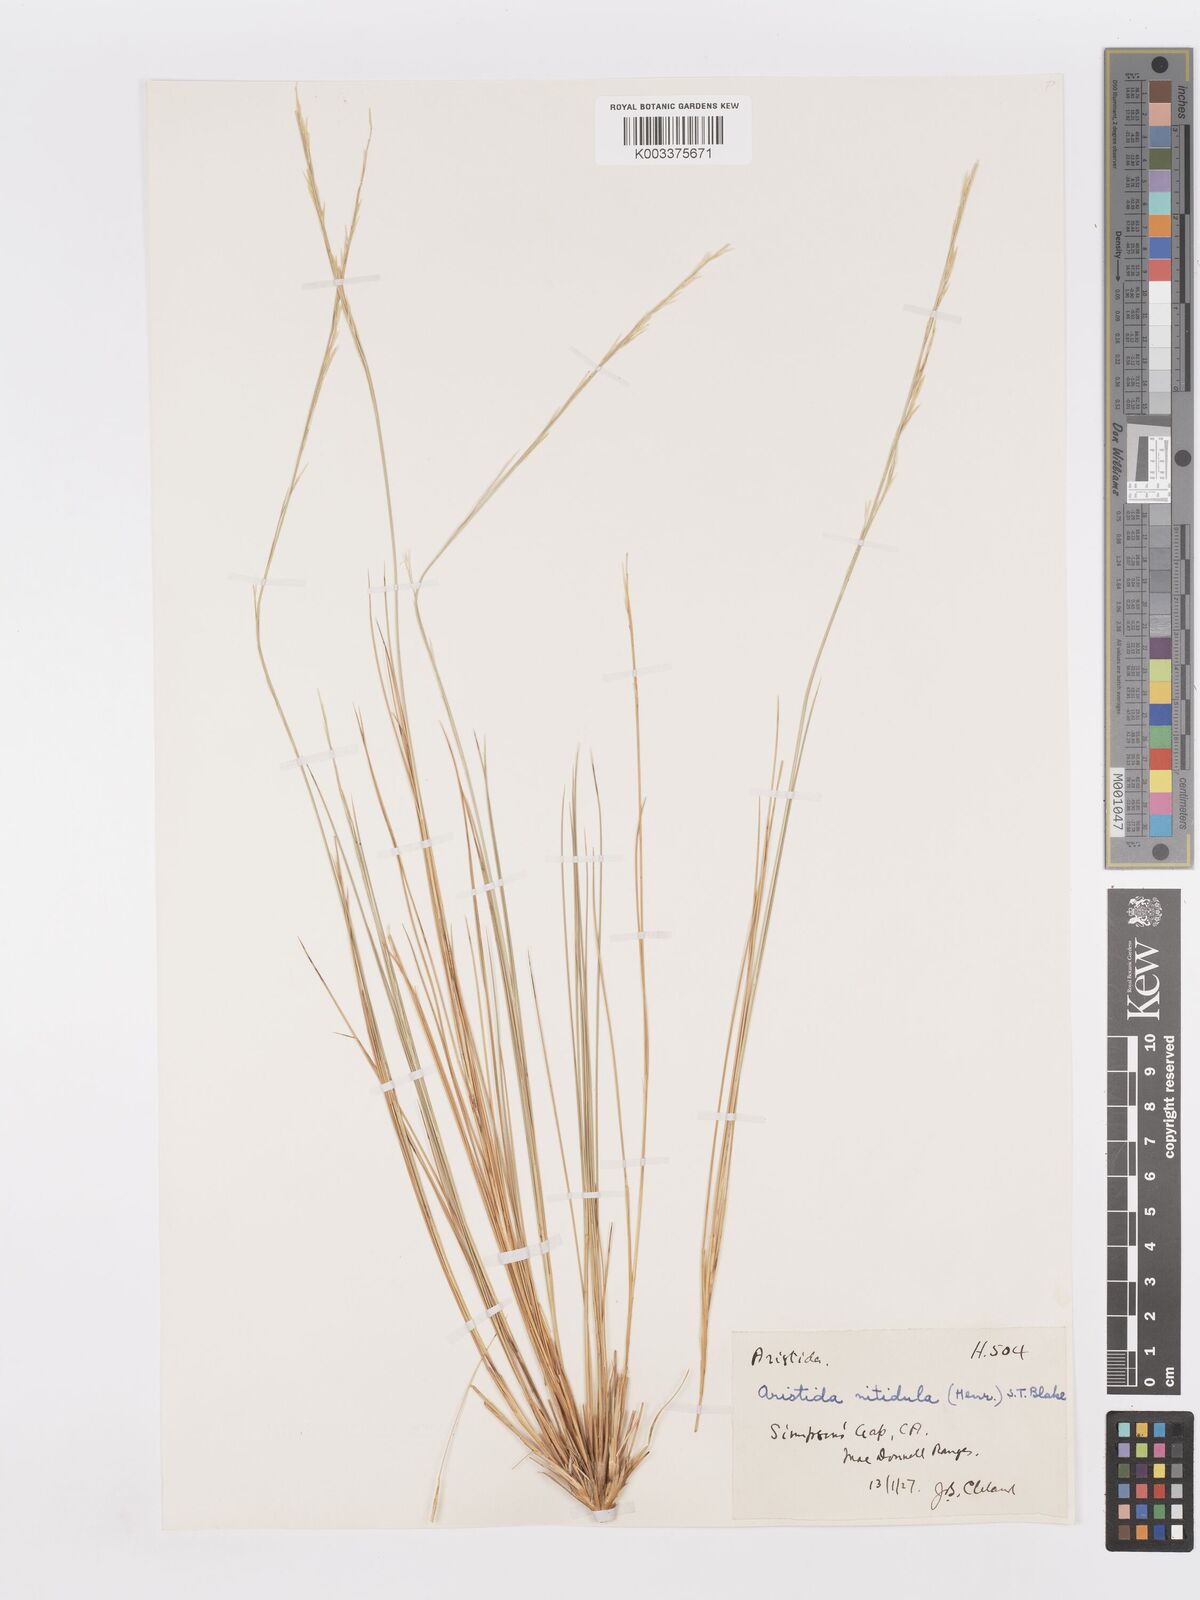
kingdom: Plantae
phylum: Tracheophyta
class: Liliopsida
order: Poales
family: Poaceae
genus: Aristida
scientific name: Aristida nitidula
